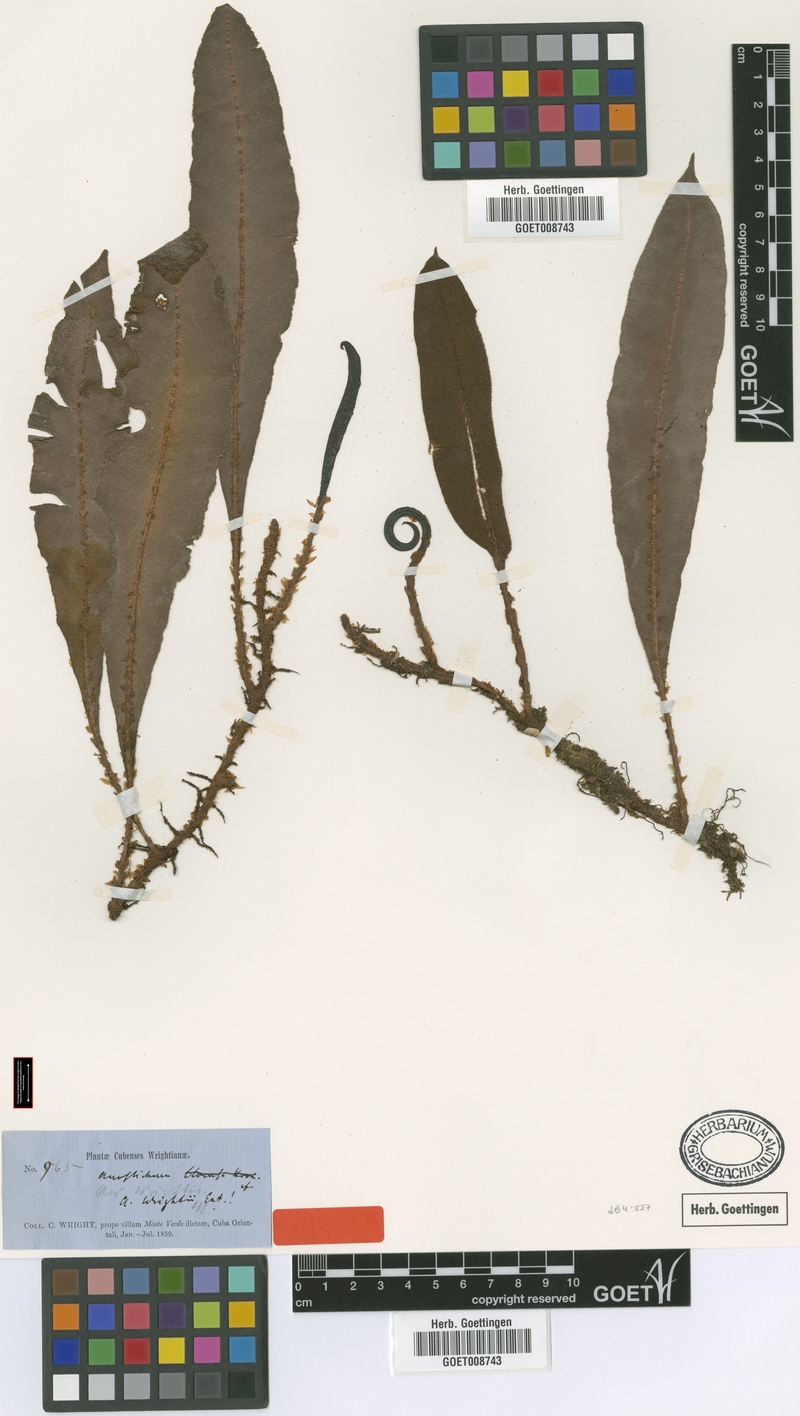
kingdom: Plantae
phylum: Tracheophyta
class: Polypodiopsida
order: Polypodiales
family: Dryopteridaceae
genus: Elaphoglossum
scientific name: Elaphoglossum wrightii
